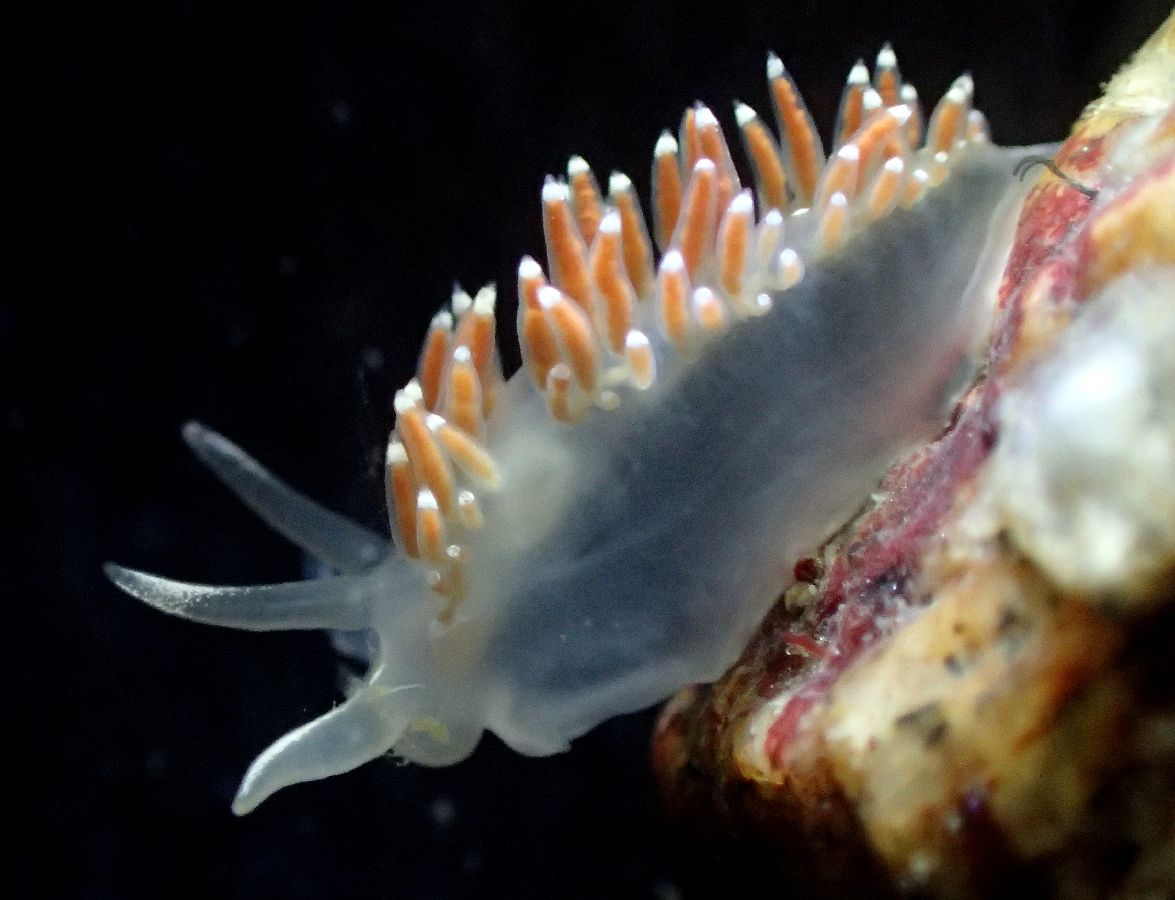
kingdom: Animalia
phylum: Mollusca
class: Gastropoda
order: Nudibranchia
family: Coryphellidae
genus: Coryphella
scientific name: Coryphella verrucosa
